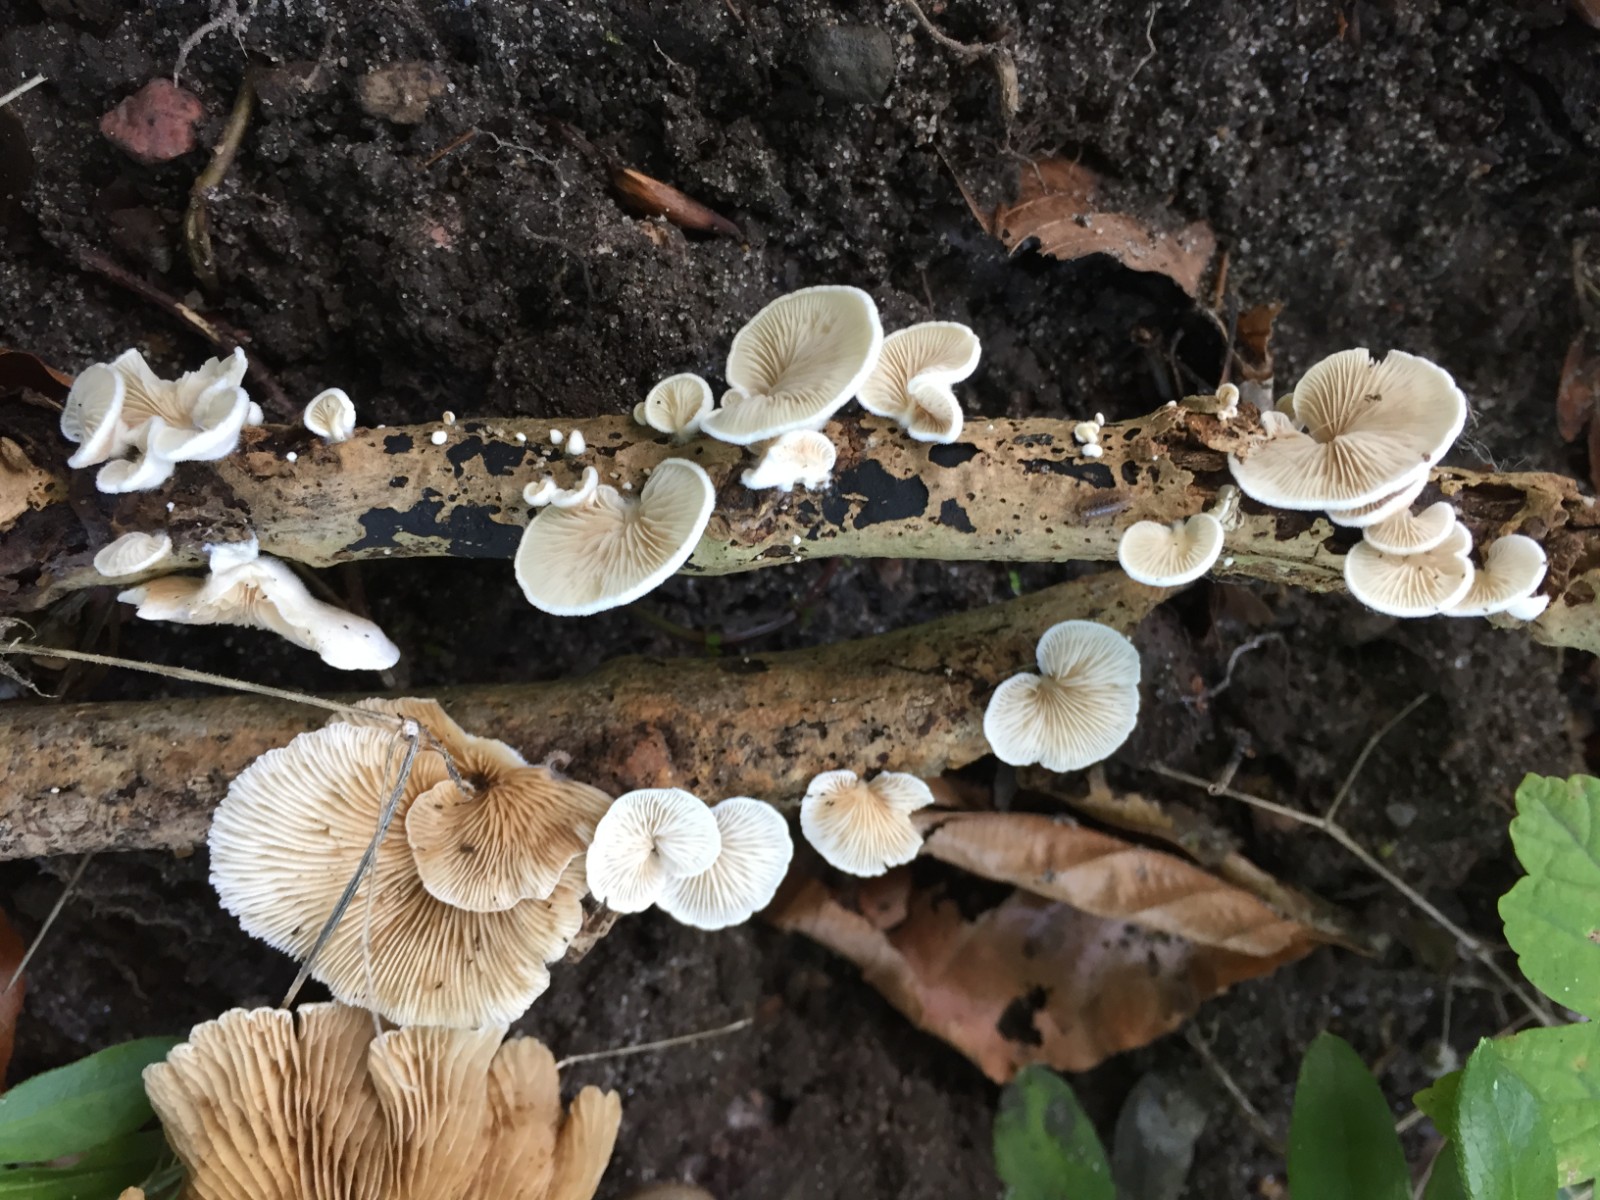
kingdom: Fungi
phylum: Basidiomycota
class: Agaricomycetes
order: Agaricales
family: Crepidotaceae
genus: Crepidotus
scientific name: Crepidotus caspari
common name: Lundells muslingesvamp
